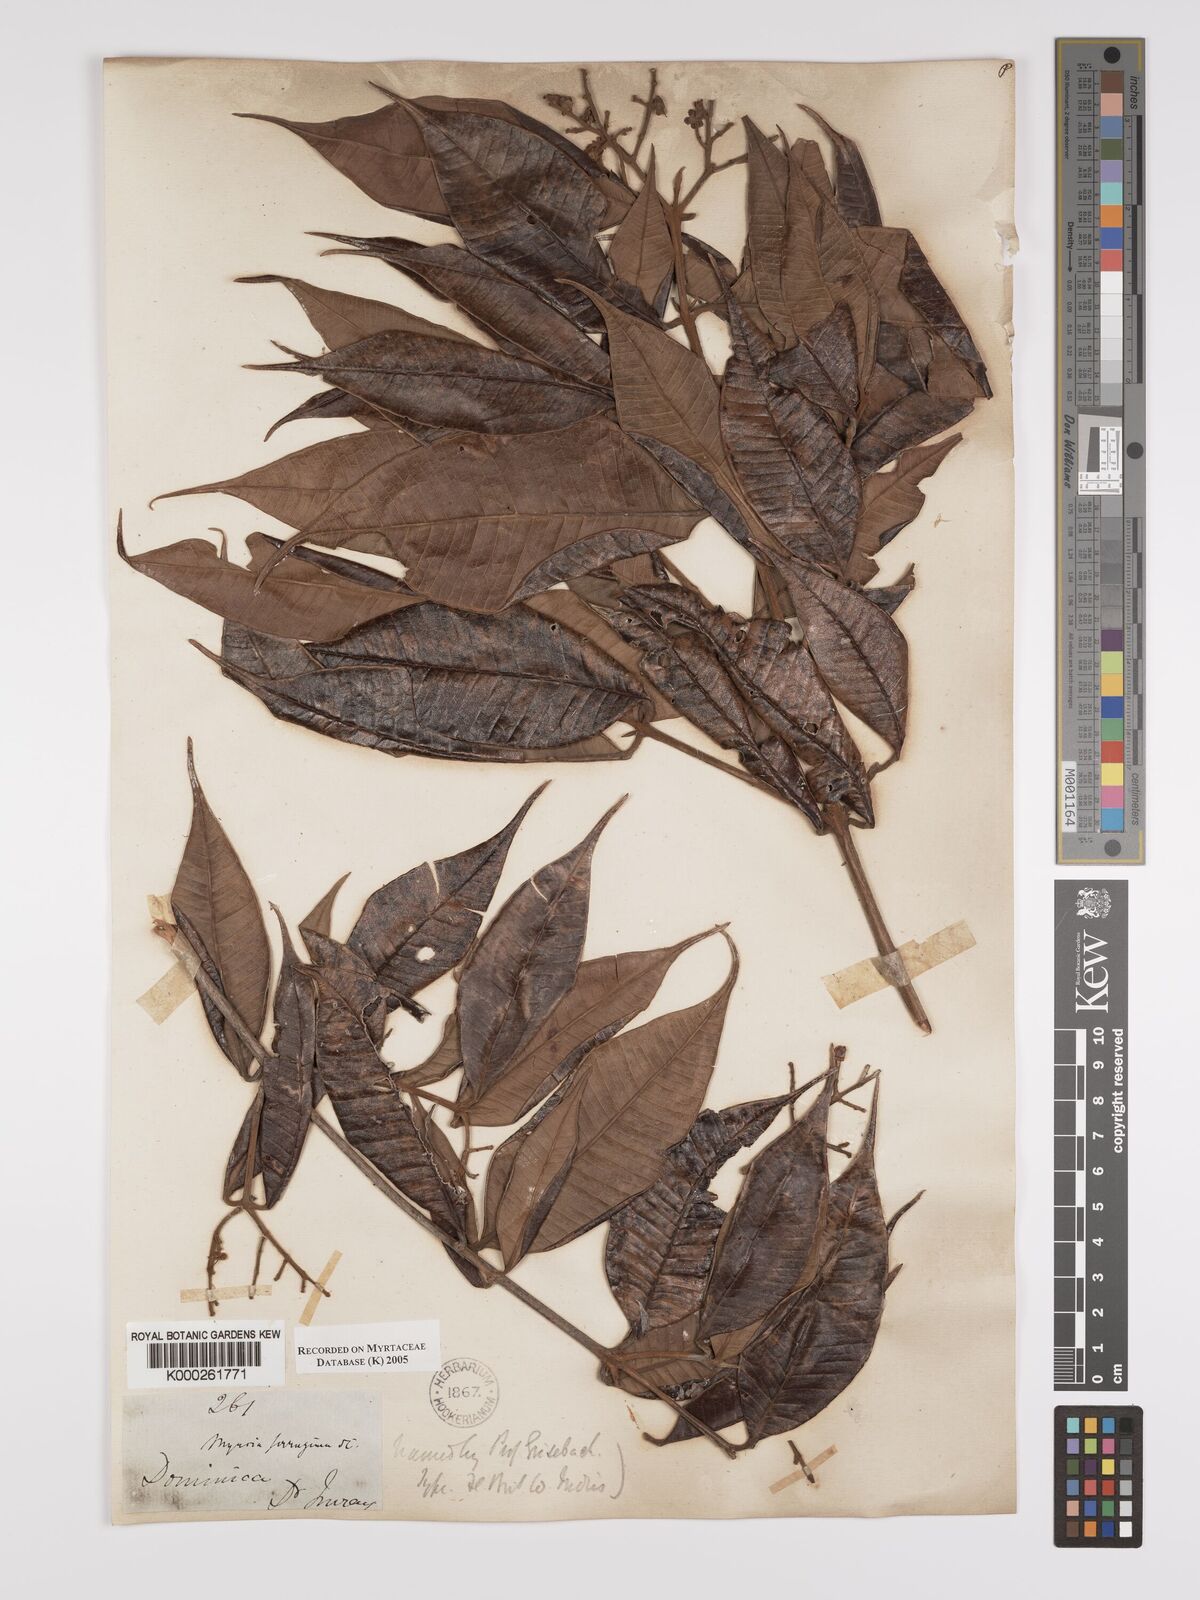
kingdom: Plantae
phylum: Tracheophyta
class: Magnoliopsida
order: Myrtales
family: Myrtaceae
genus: Myrcia
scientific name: Myrcia ferruginea
